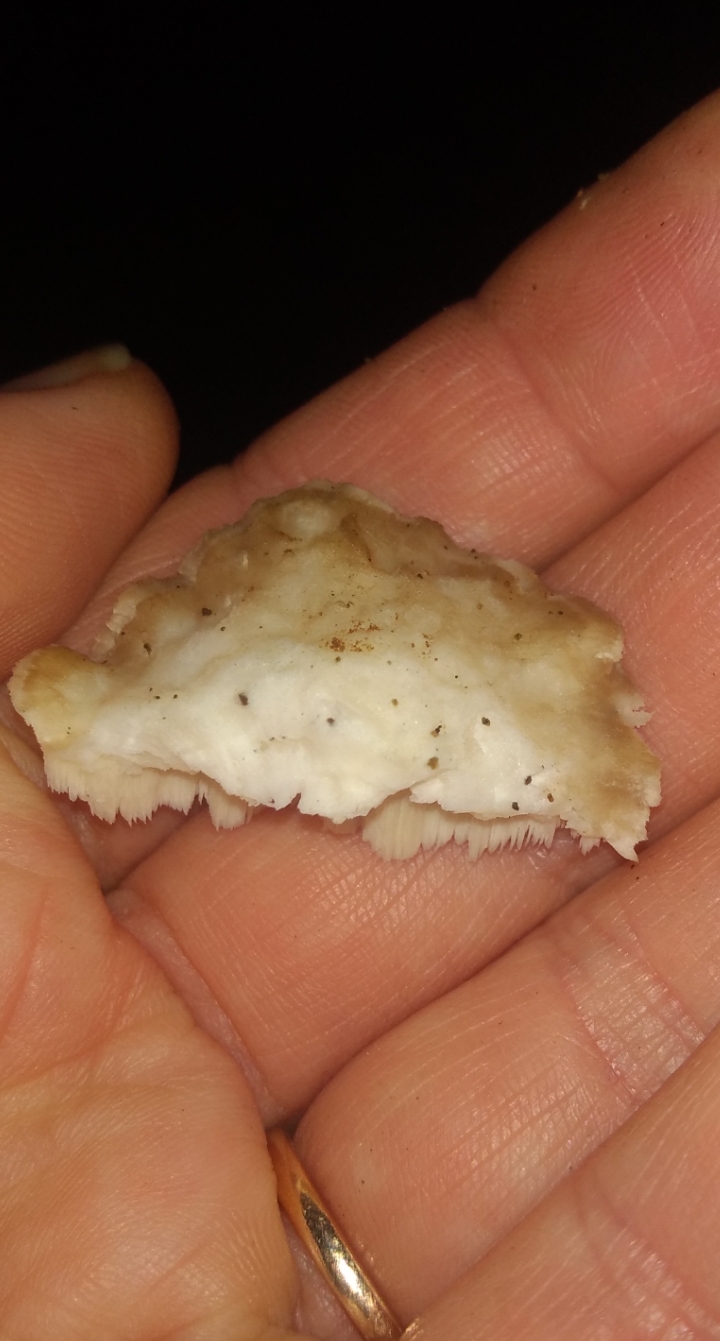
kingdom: Fungi
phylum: Basidiomycota
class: Agaricomycetes
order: Polyporales
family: Dacryobolaceae
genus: Postia
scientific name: Postia
